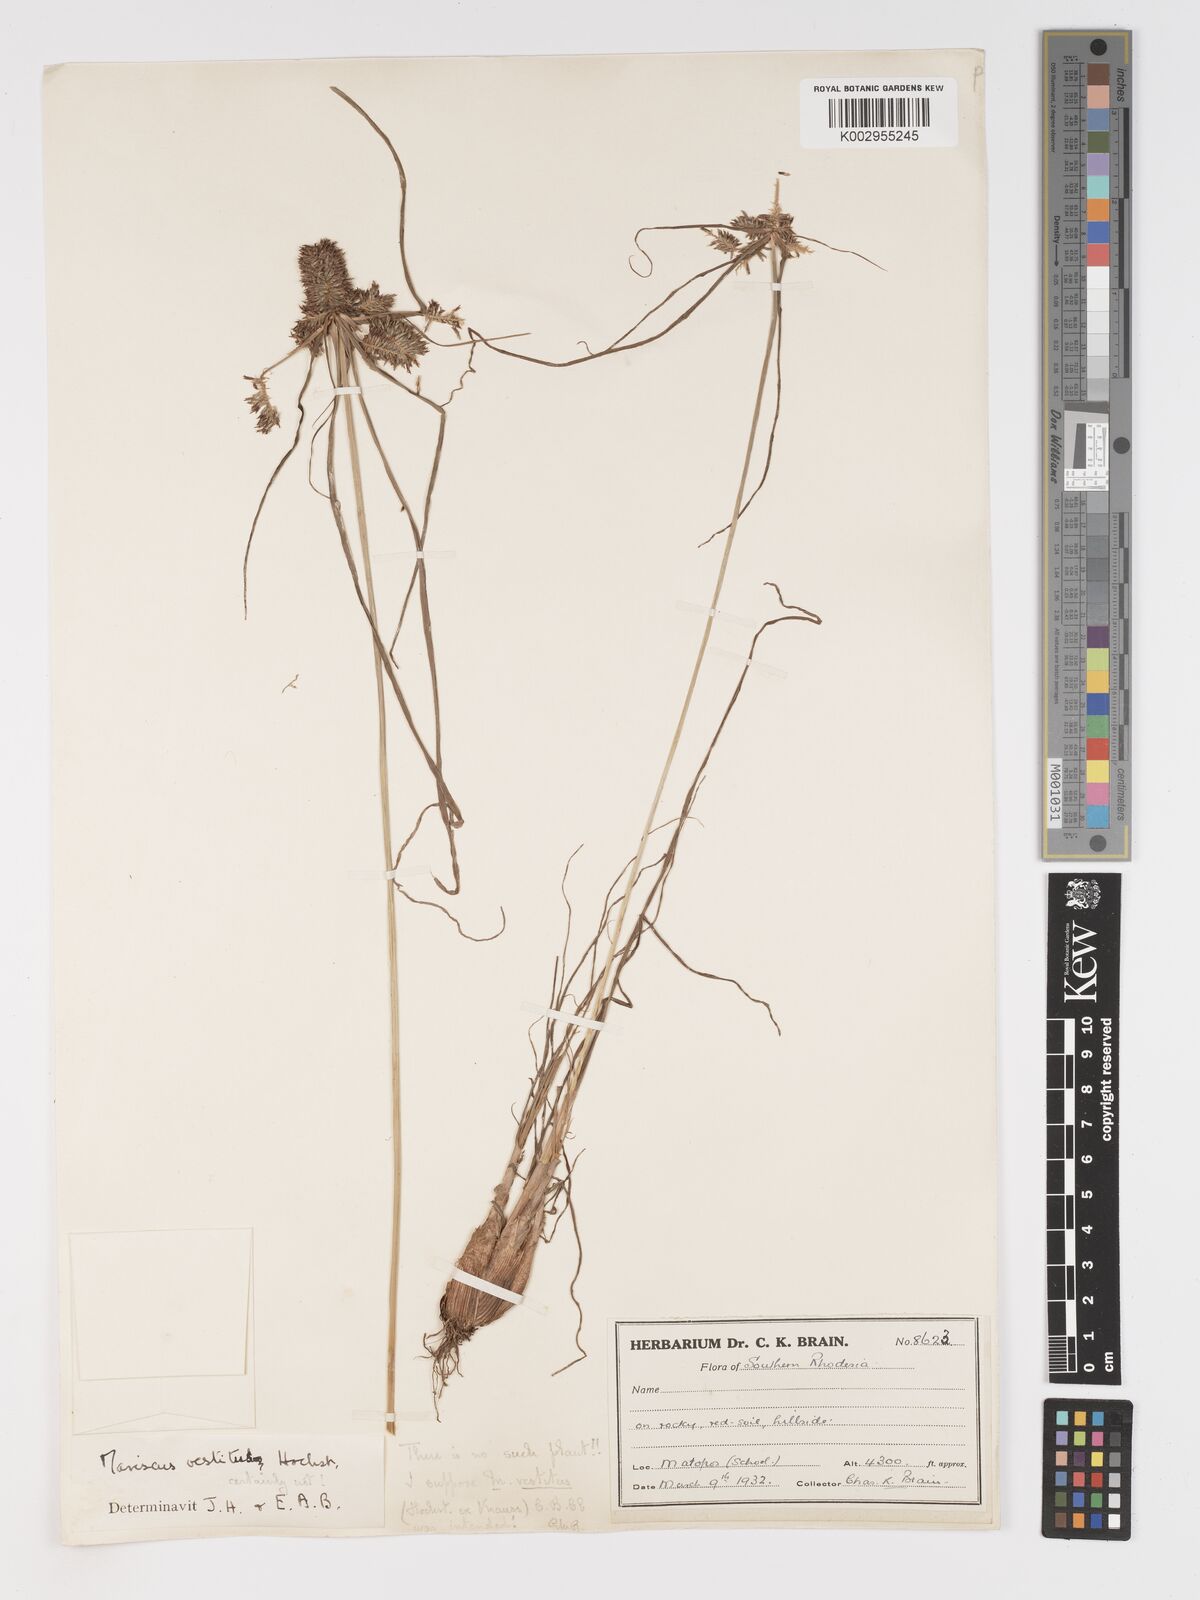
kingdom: Plantae
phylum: Tracheophyta
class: Liliopsida
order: Poales
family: Cyperaceae
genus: Cyperus
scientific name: Cyperus
